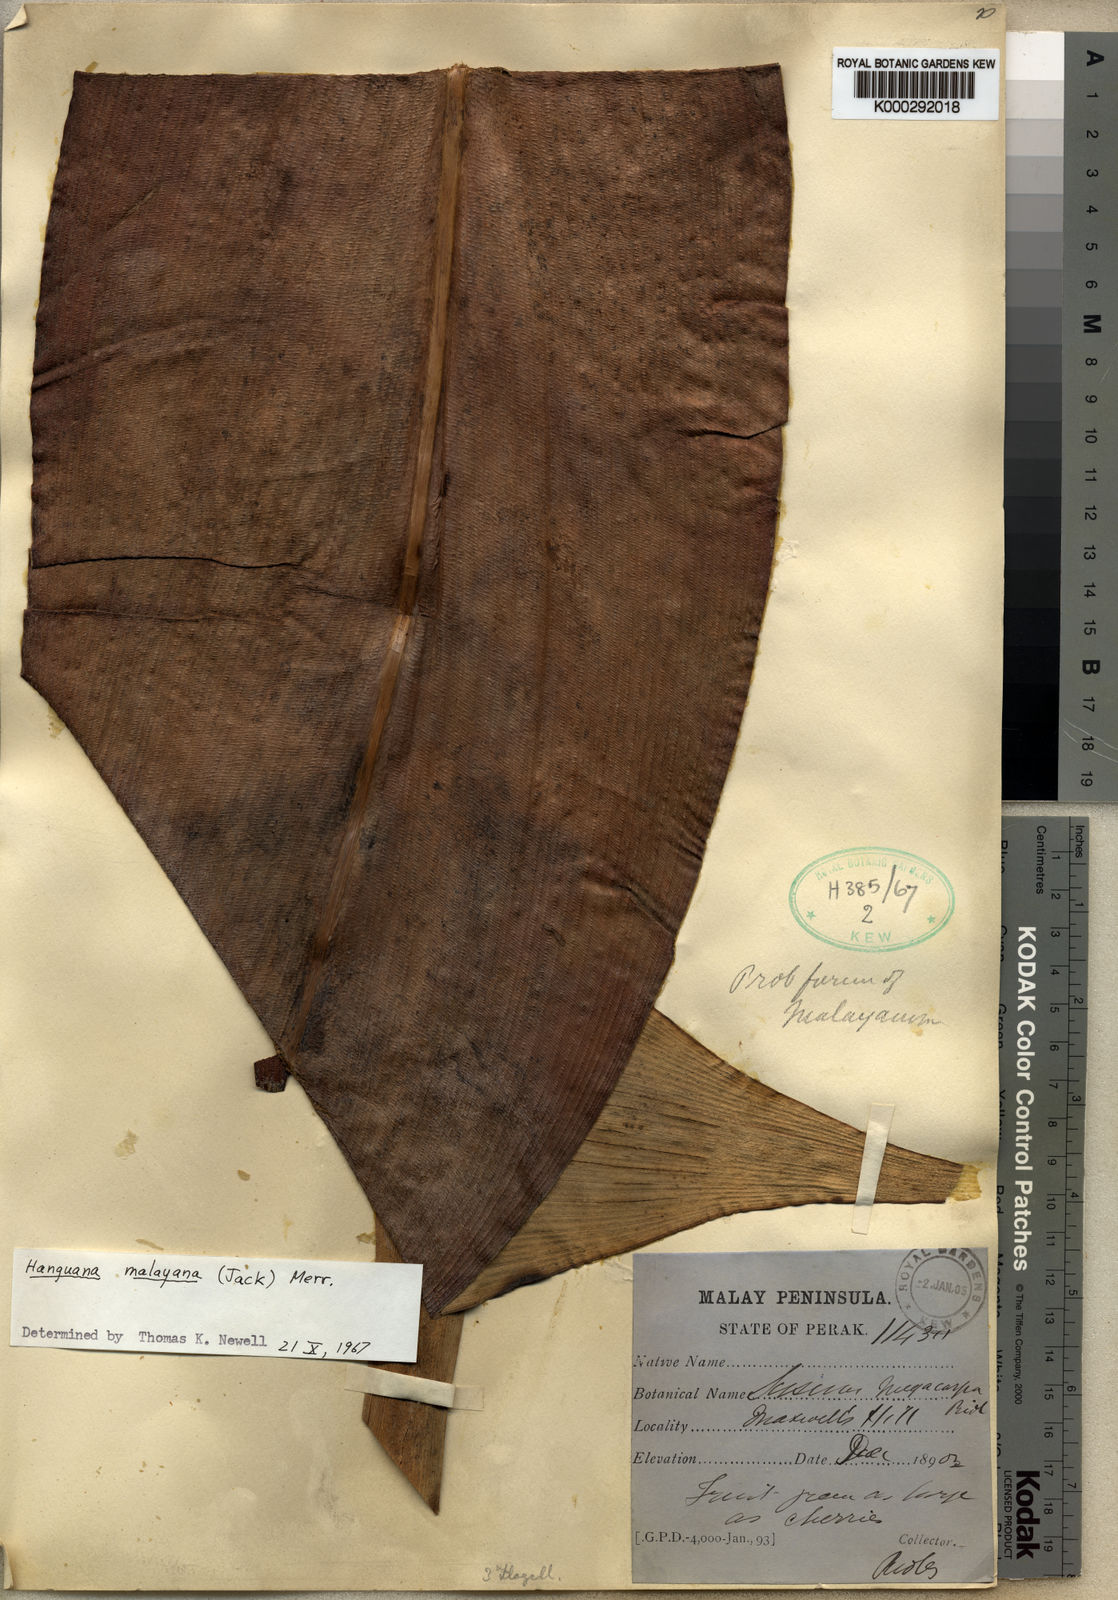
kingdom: Plantae
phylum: Tracheophyta
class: Liliopsida
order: Commelinales
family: Hanguanaceae
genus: Hanguana
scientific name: Hanguana malayana
